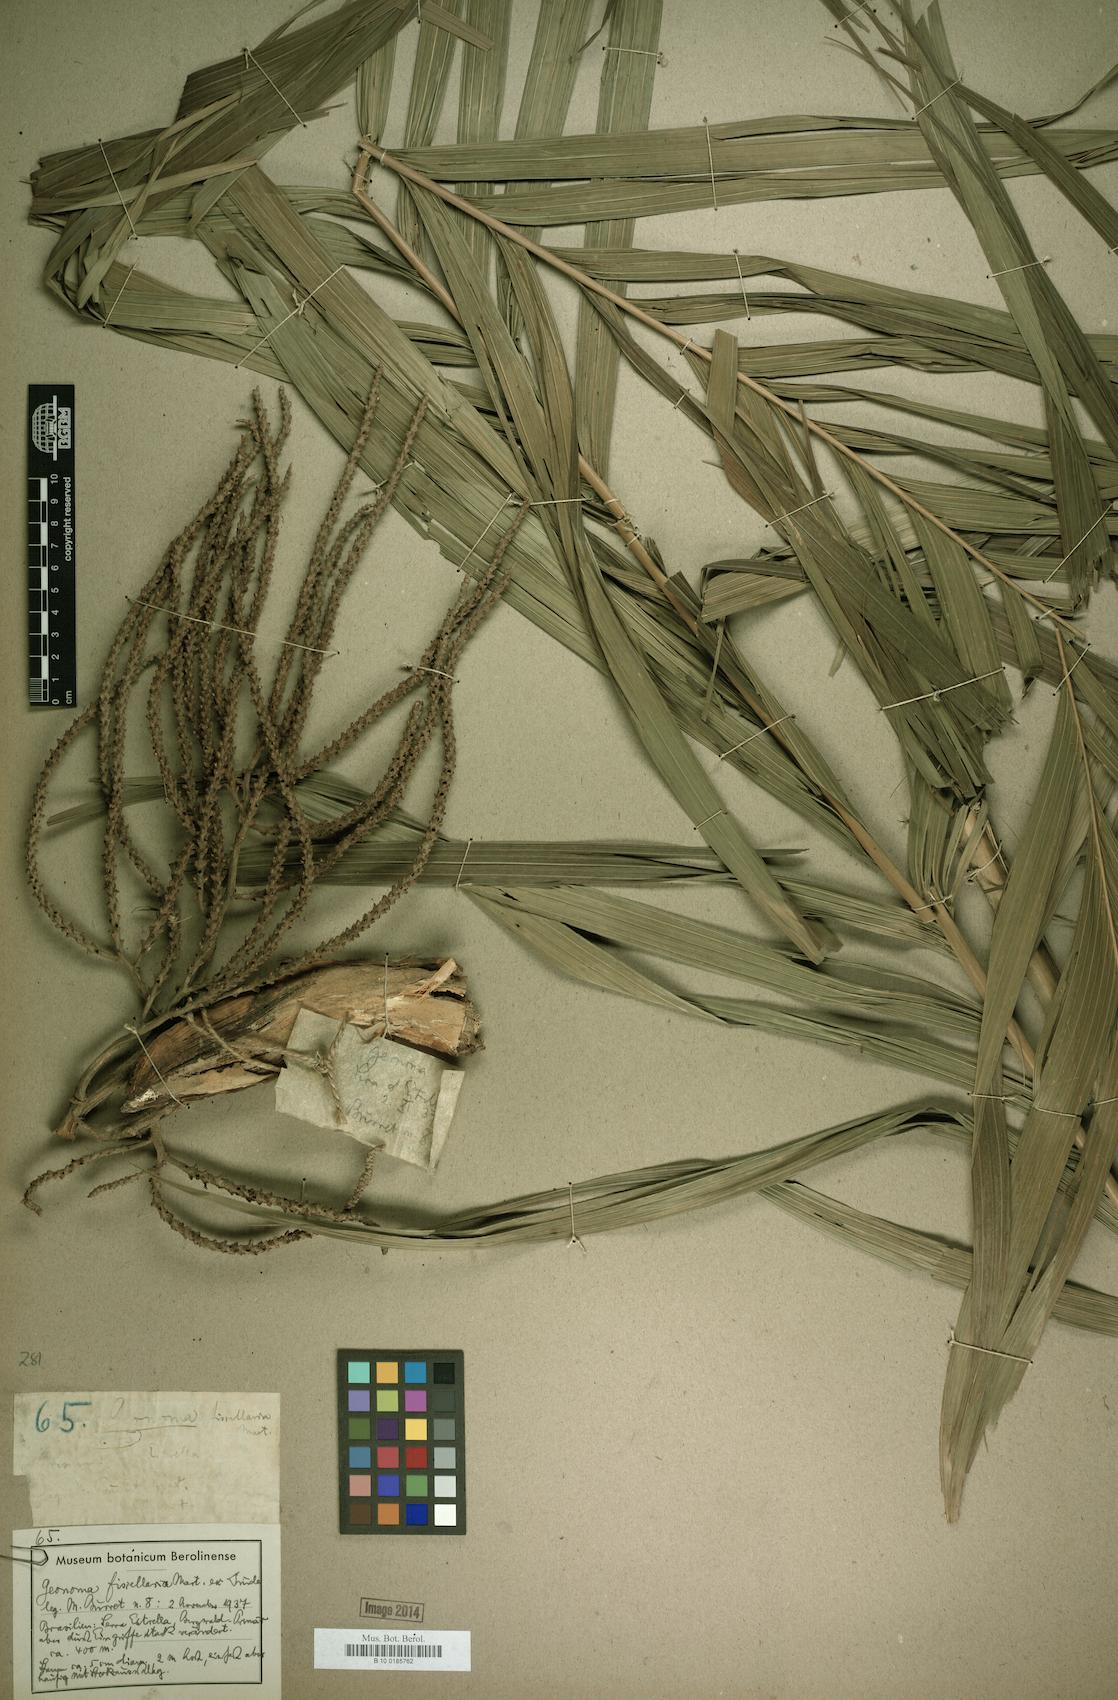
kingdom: Plantae
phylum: Tracheophyta
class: Liliopsida
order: Arecales
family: Arecaceae
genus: Geonoma
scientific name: Geonoma pohliana
